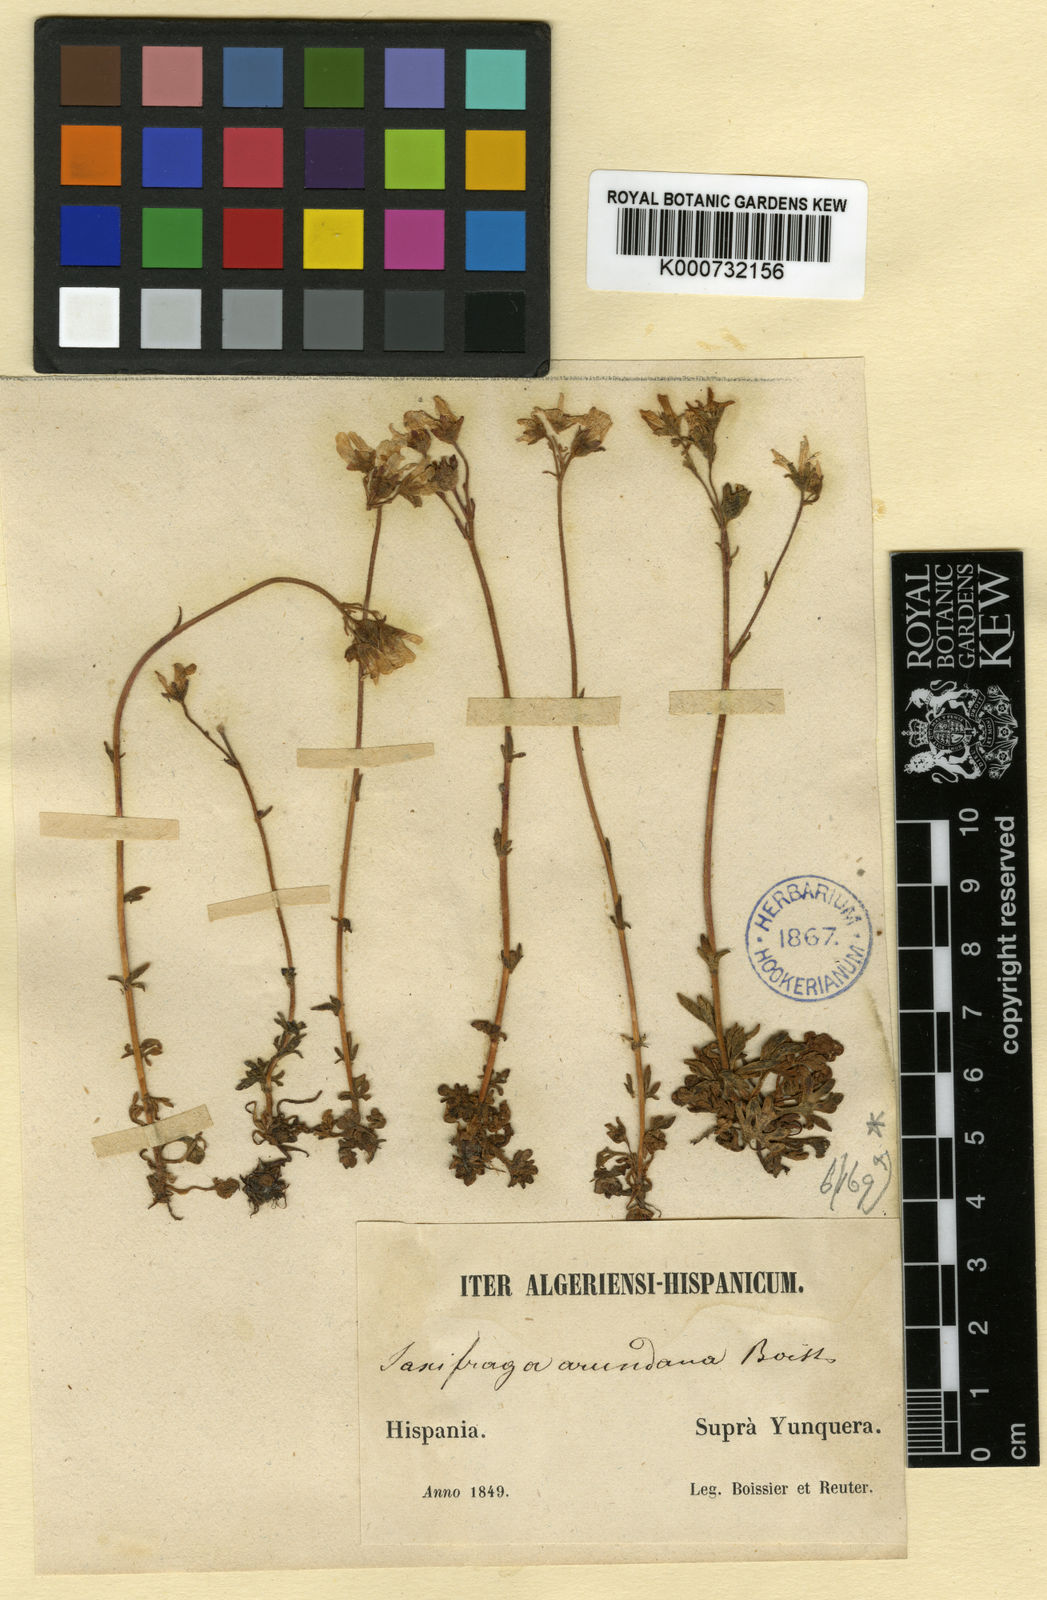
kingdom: Plantae
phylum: Tracheophyta
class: Magnoliopsida
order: Saxifragales
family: Saxifragaceae
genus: Saxifraga
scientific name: Saxifraga
